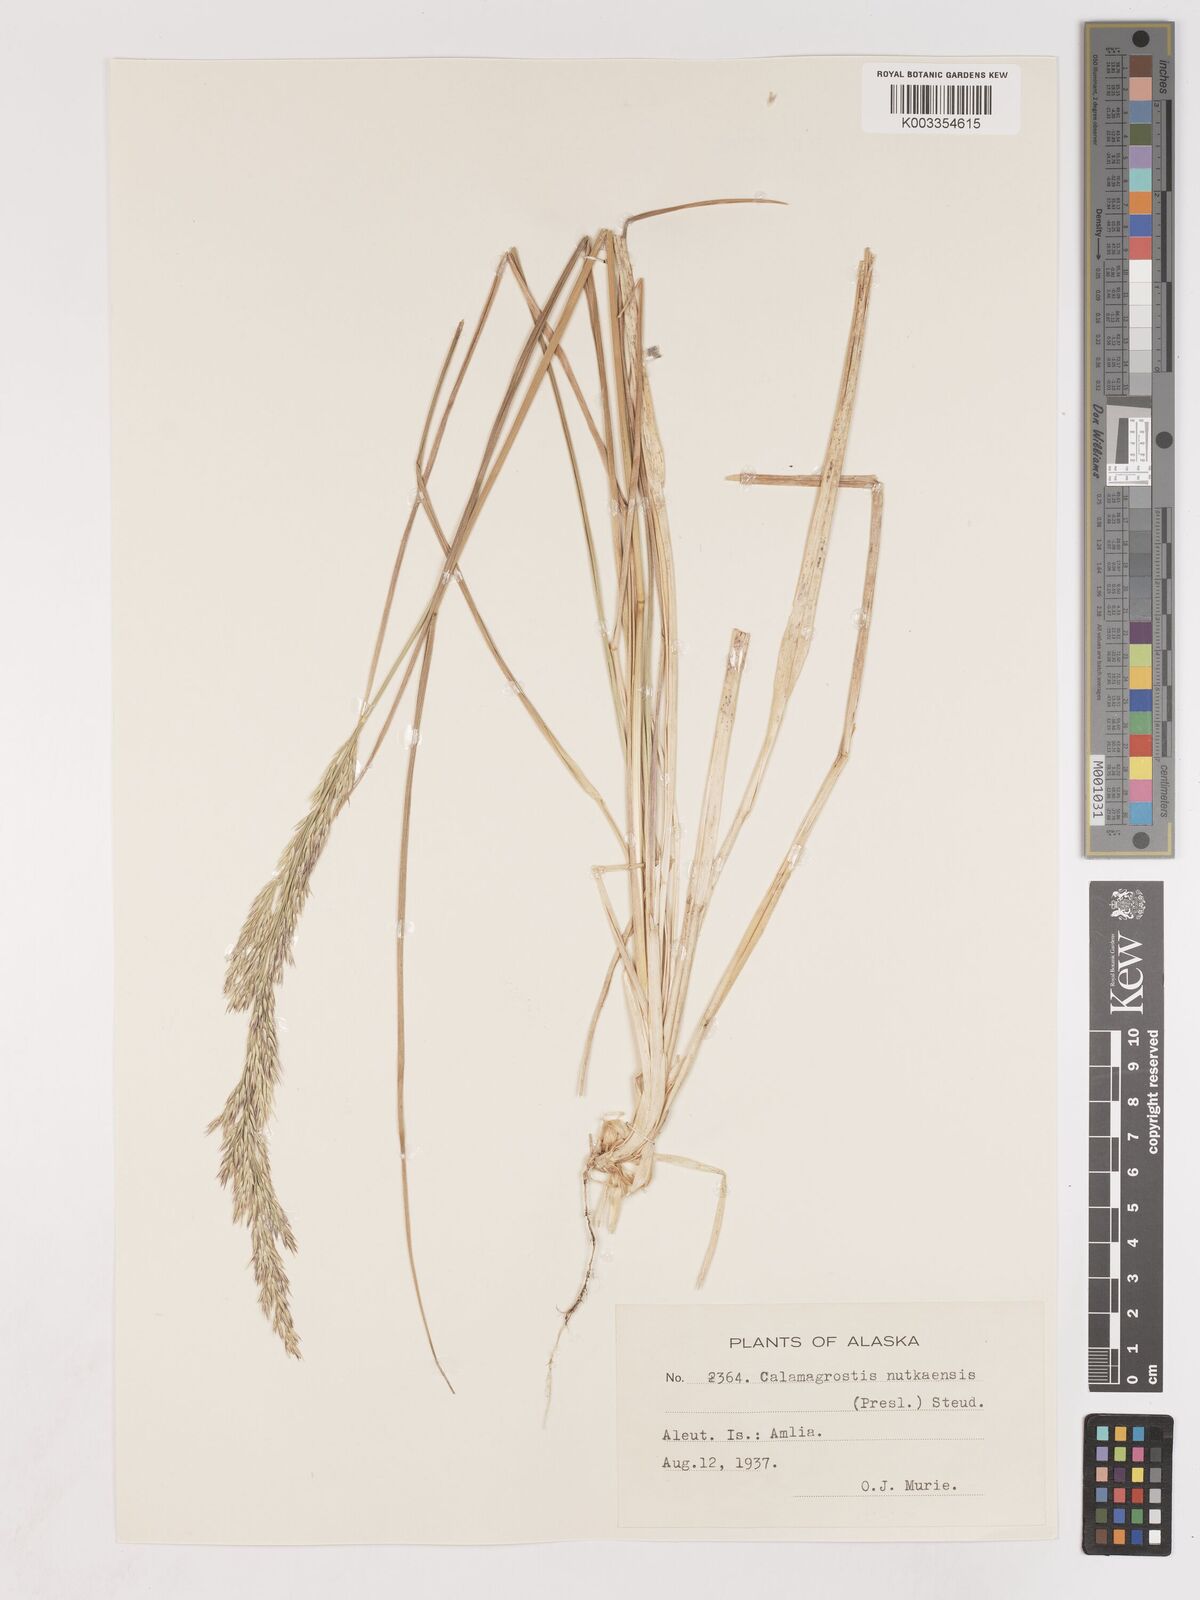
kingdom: Plantae
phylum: Tracheophyta
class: Liliopsida
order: Poales
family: Poaceae
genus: Calamagrostis
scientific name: Calamagrostis nutkaensis
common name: Pacific reed grass
